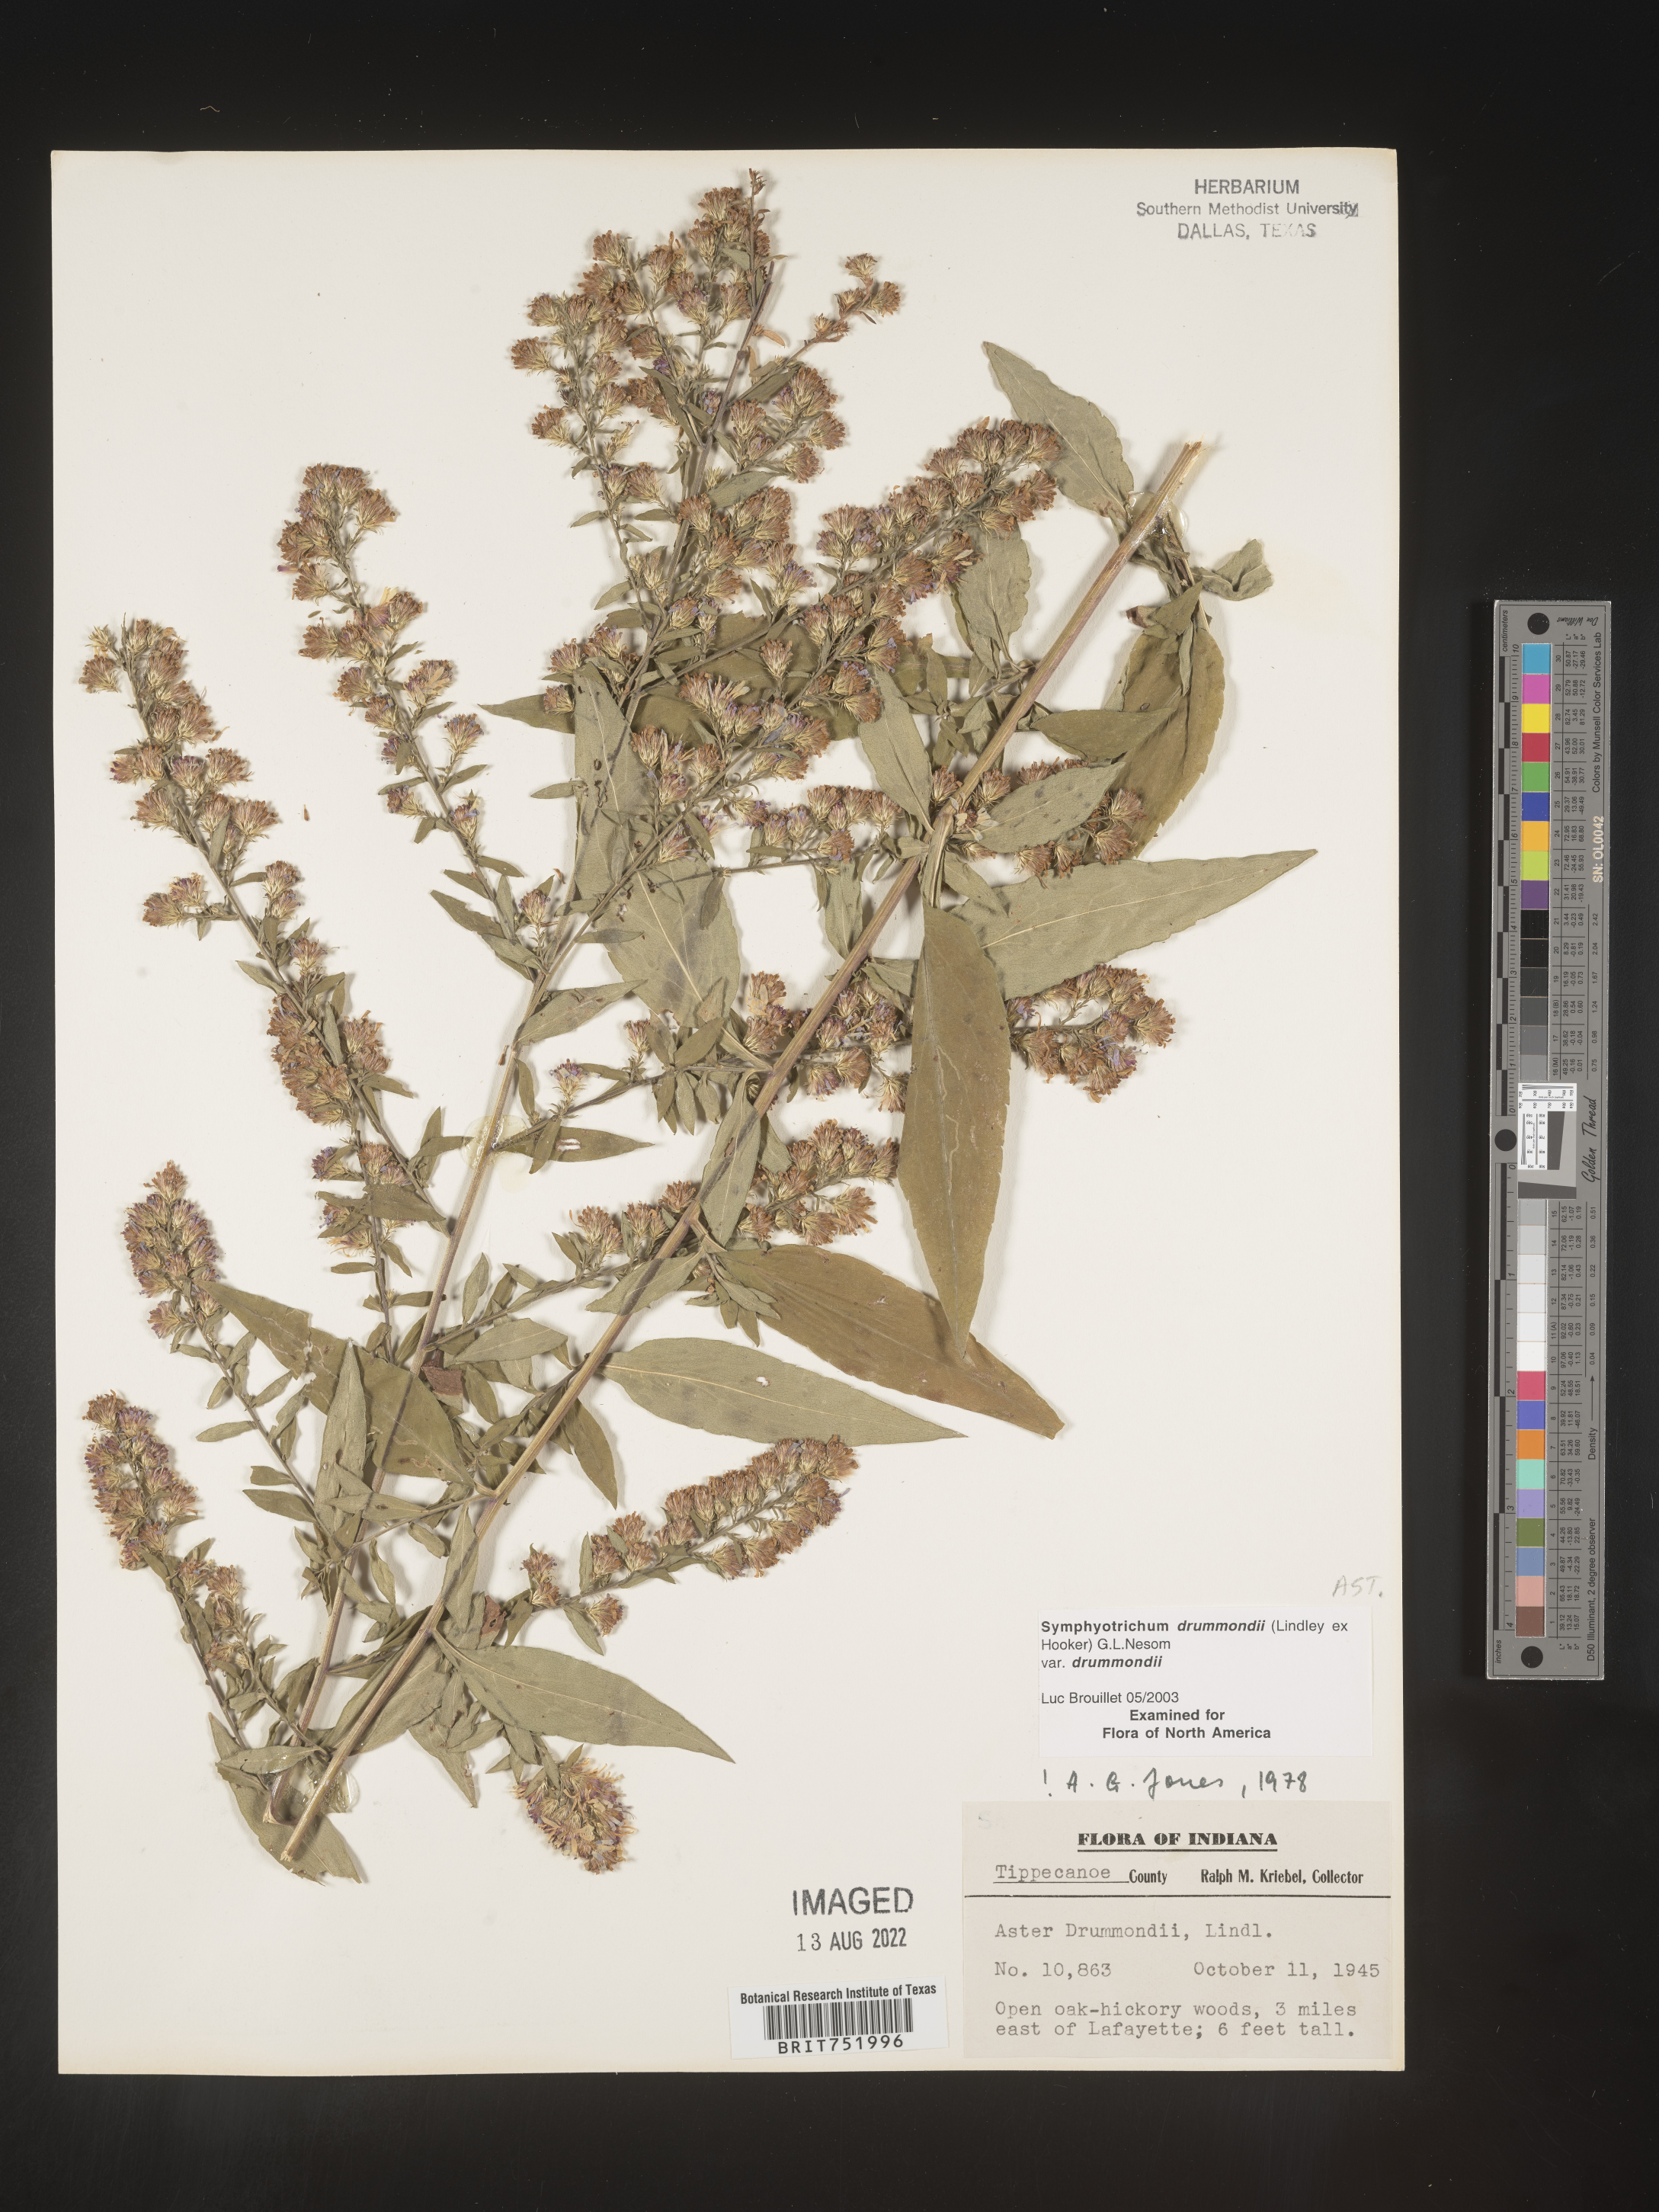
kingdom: Plantae
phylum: Tracheophyta
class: Magnoliopsida
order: Asterales
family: Asteraceae
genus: Symphyotrichum
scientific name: Symphyotrichum drummondii
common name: Drummond's aster
